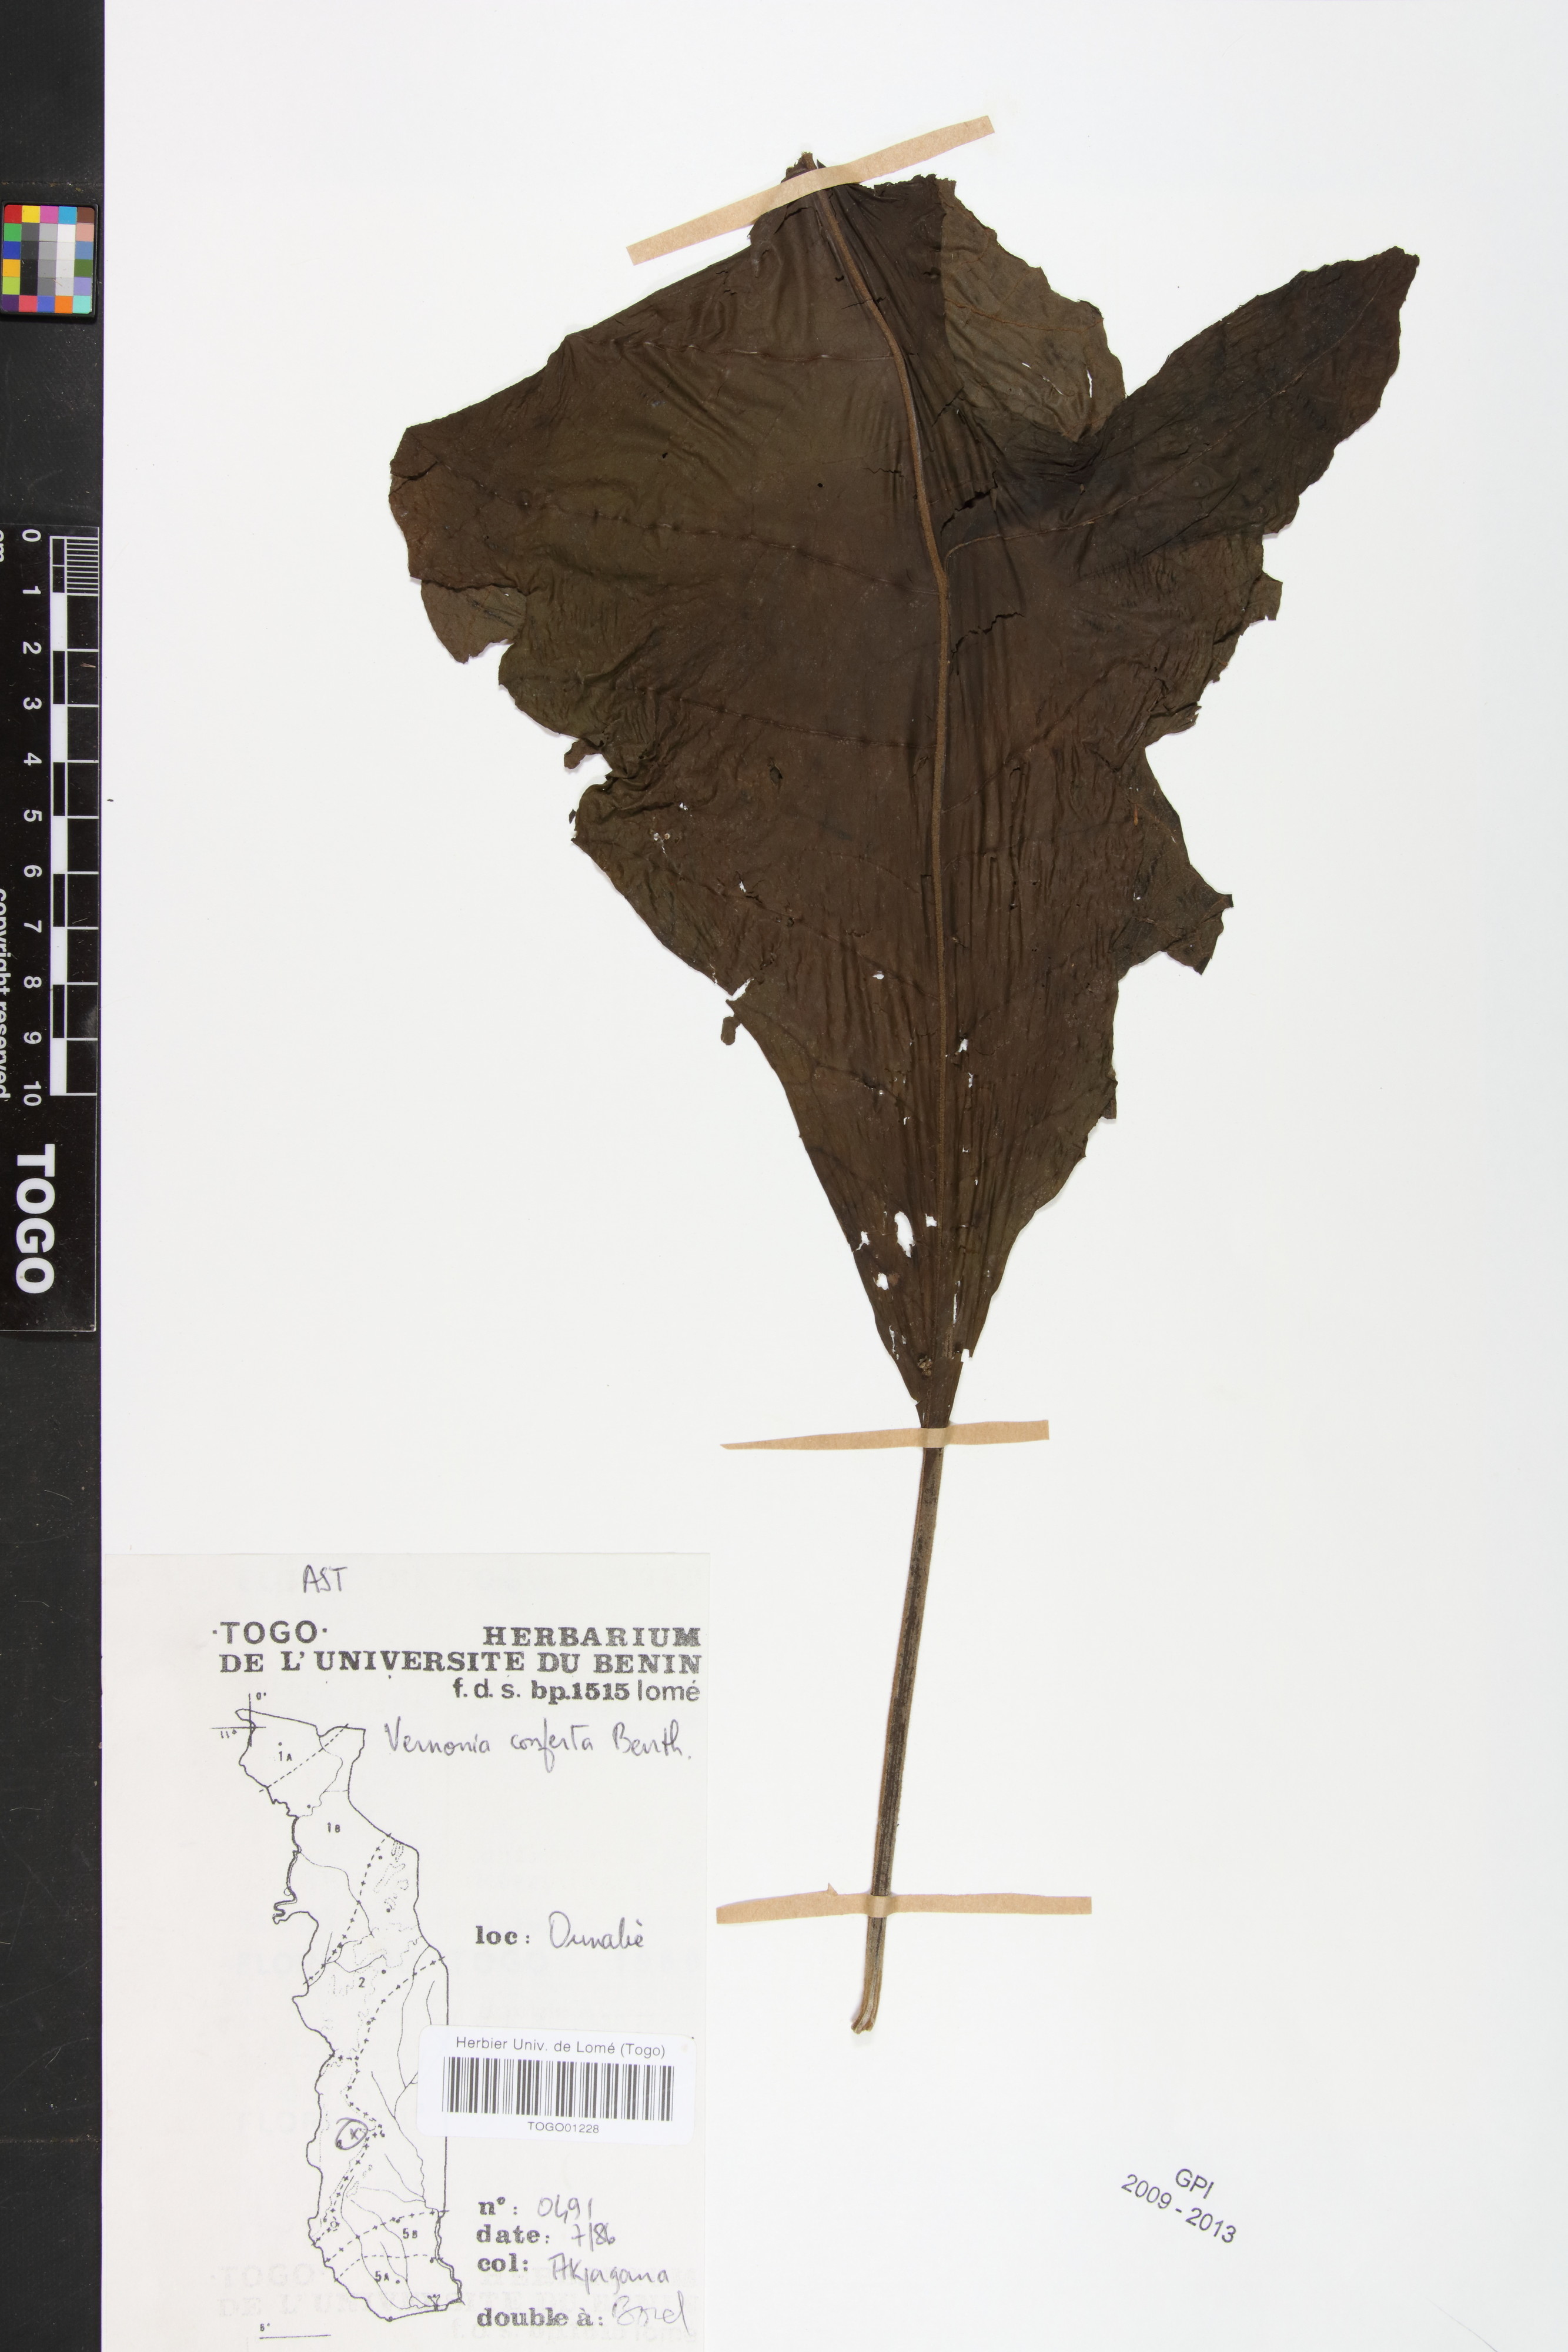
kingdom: Plantae
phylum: Tracheophyta
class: Magnoliopsida
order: Asterales
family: Asteraceae
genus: Monosis
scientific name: Monosis conferta
